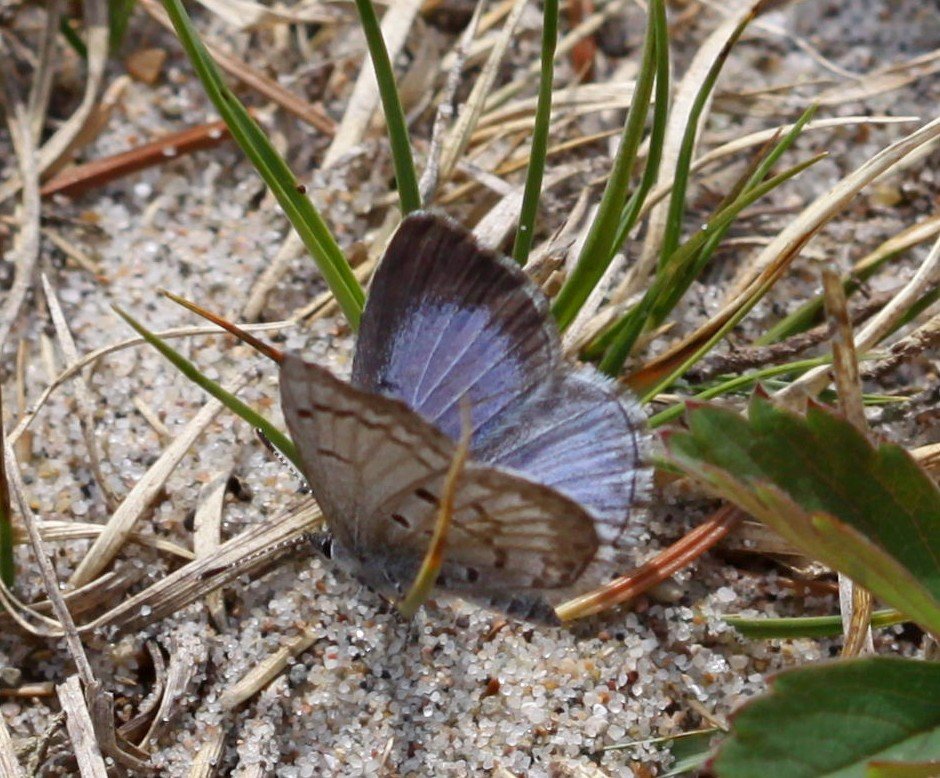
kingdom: Animalia
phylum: Arthropoda
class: Insecta
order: Lepidoptera
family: Lycaenidae
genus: Celastrina
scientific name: Celastrina lucia
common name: Northern Spring Azure
